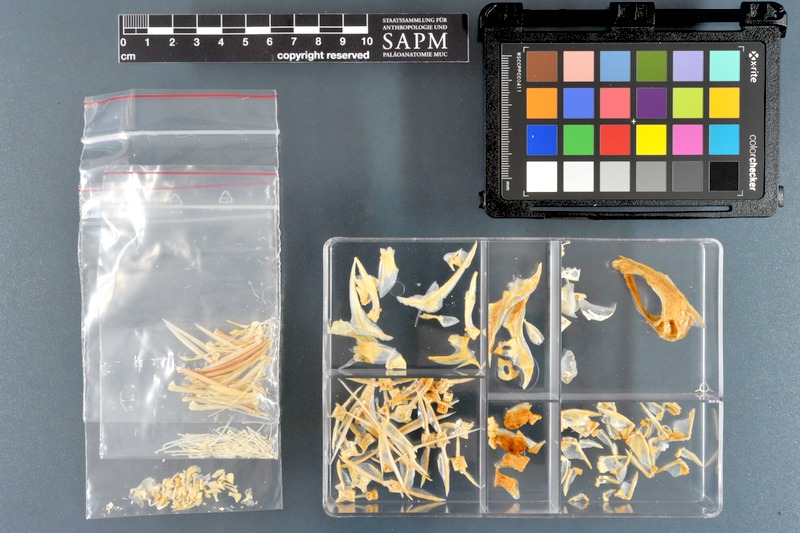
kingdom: Animalia
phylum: Chordata
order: Perciformes
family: Siganidae
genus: Siganus
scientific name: Siganus virgatus
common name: Barhead spinefoot
